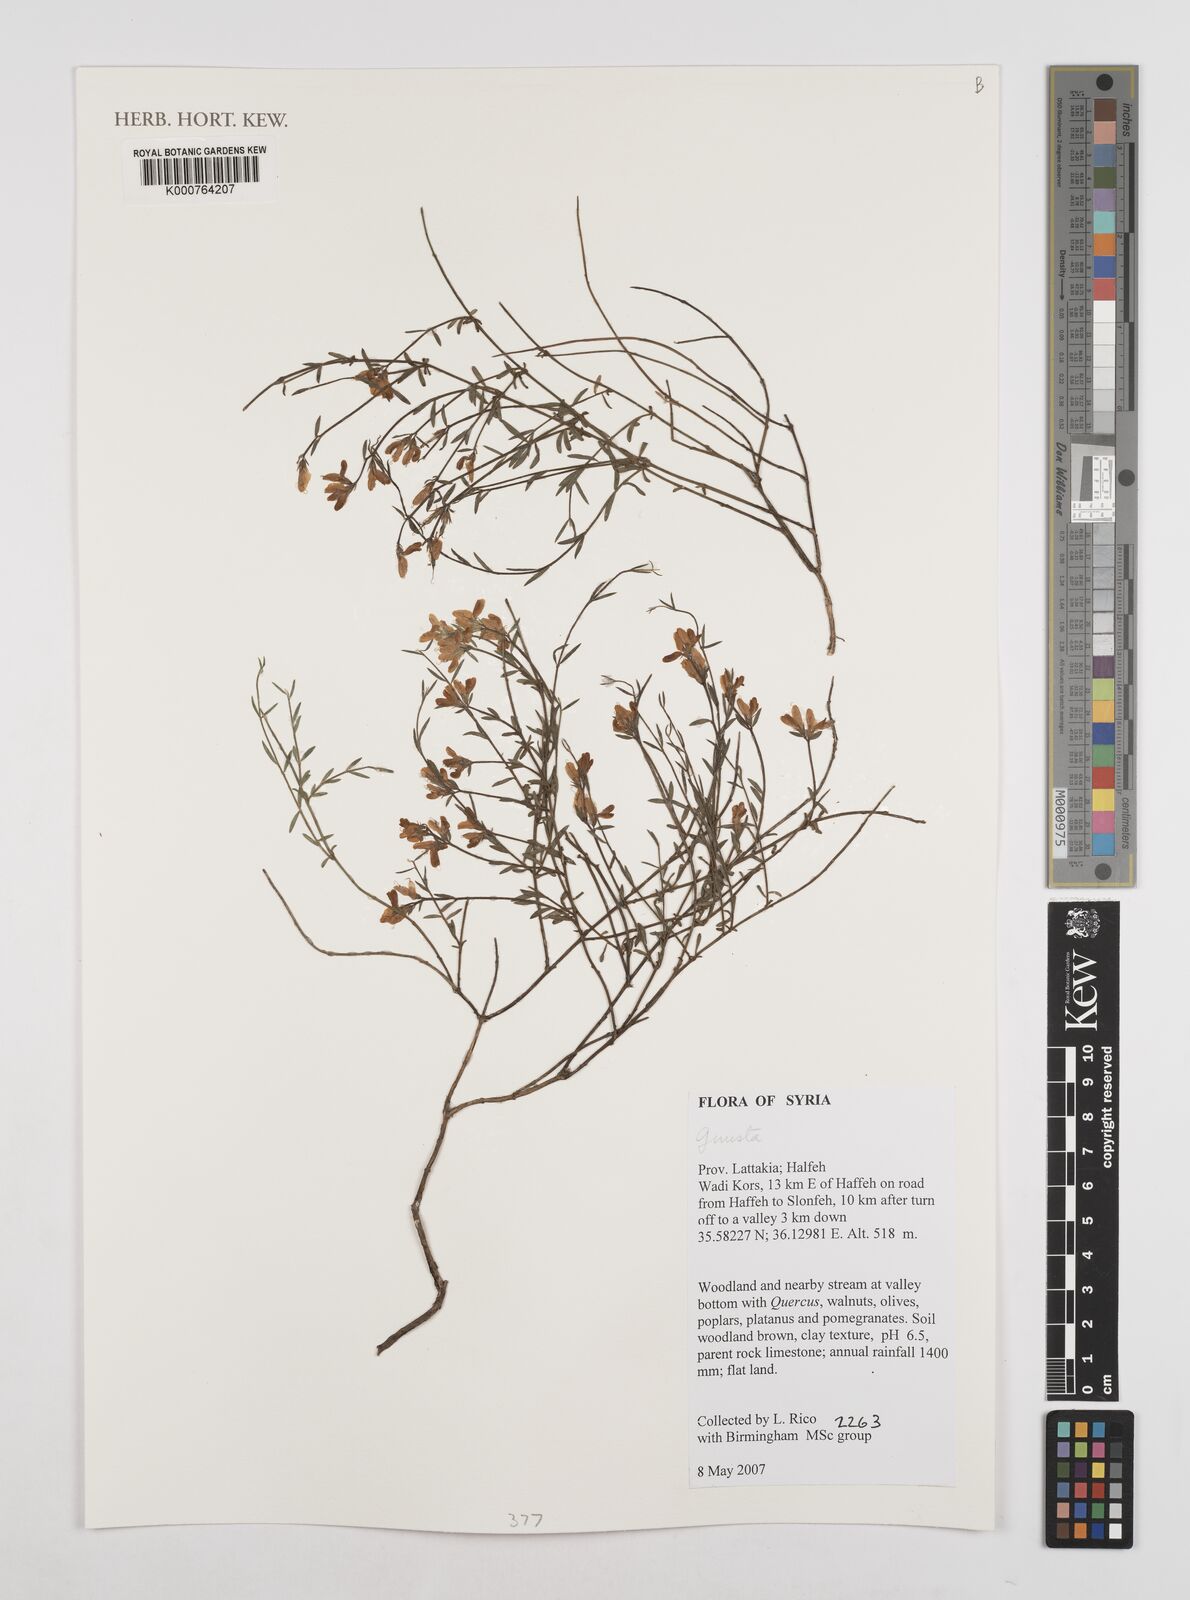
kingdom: Plantae
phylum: Tracheophyta
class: Magnoliopsida
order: Fabales
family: Fabaceae
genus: Genista
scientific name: Genista
